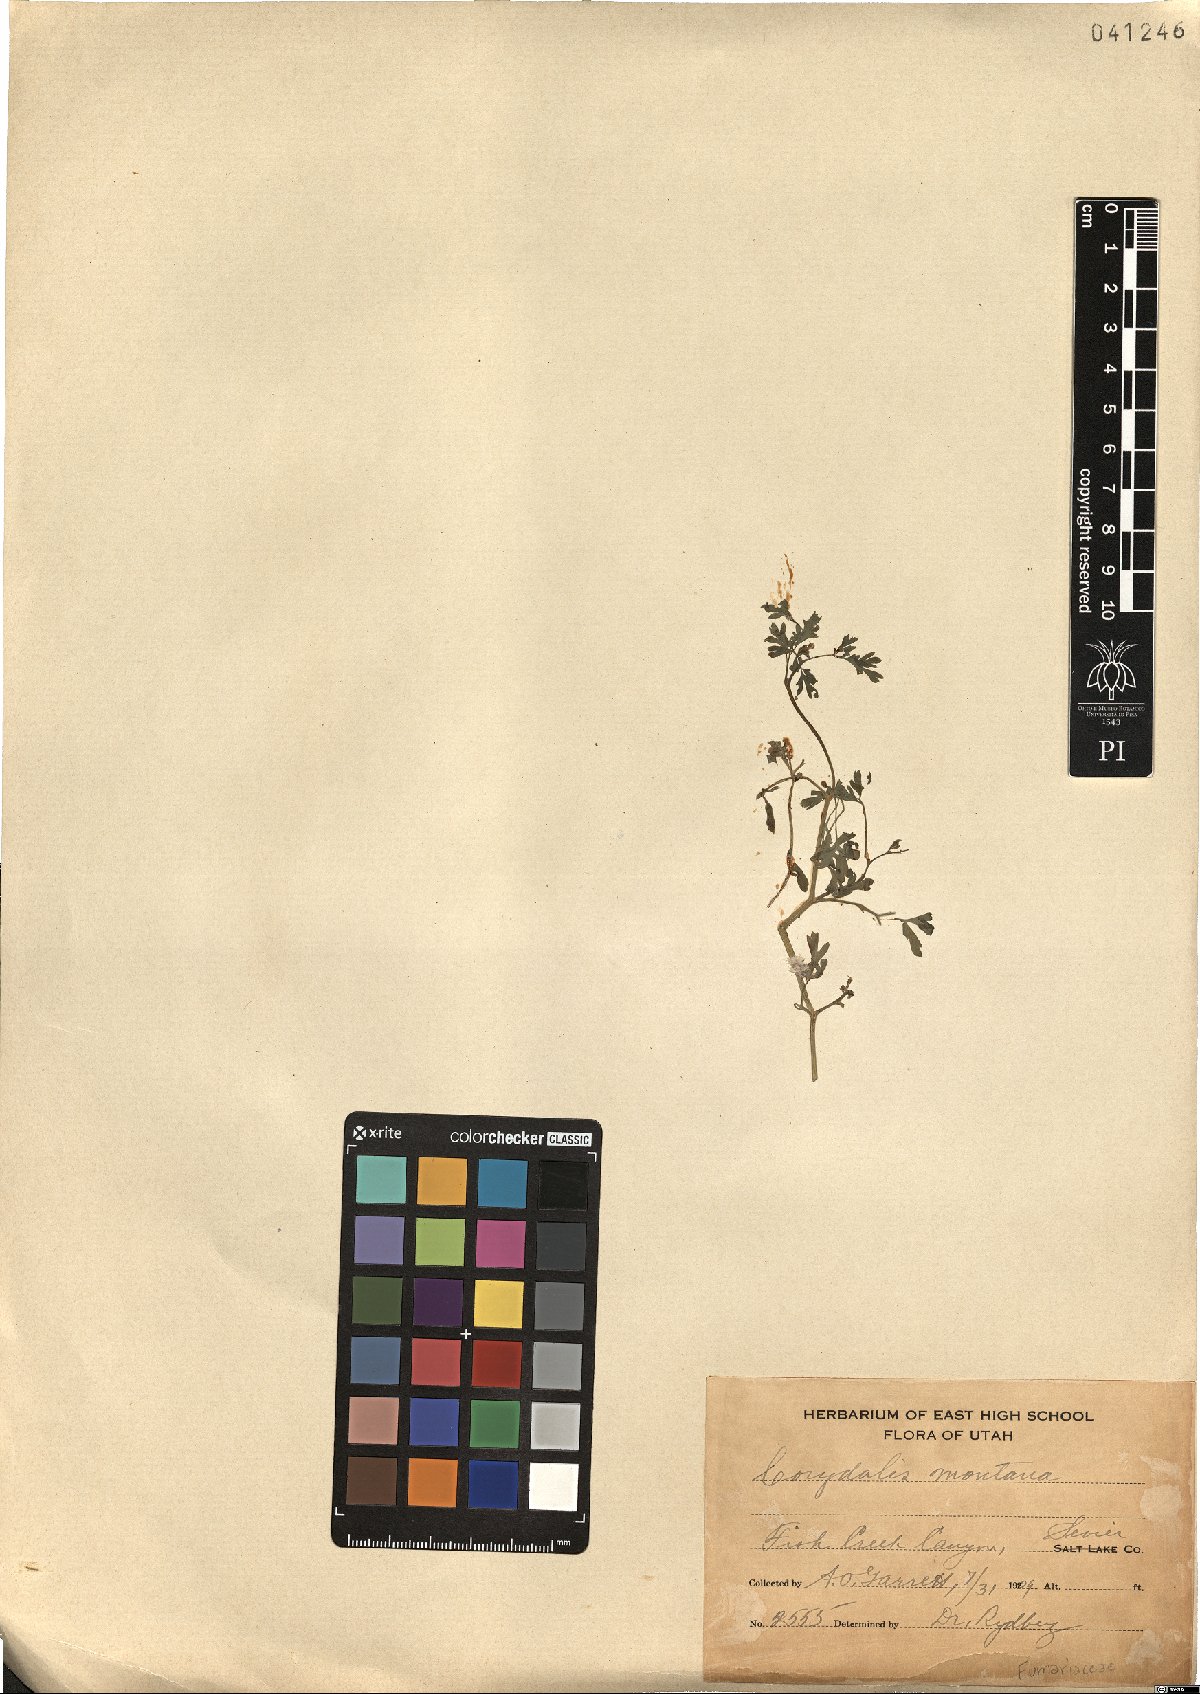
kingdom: Plantae
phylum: Tracheophyta
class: Magnoliopsida
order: Ranunculales
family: Papaveraceae
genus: Corydalis
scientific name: Corydalis curvisiliqua
